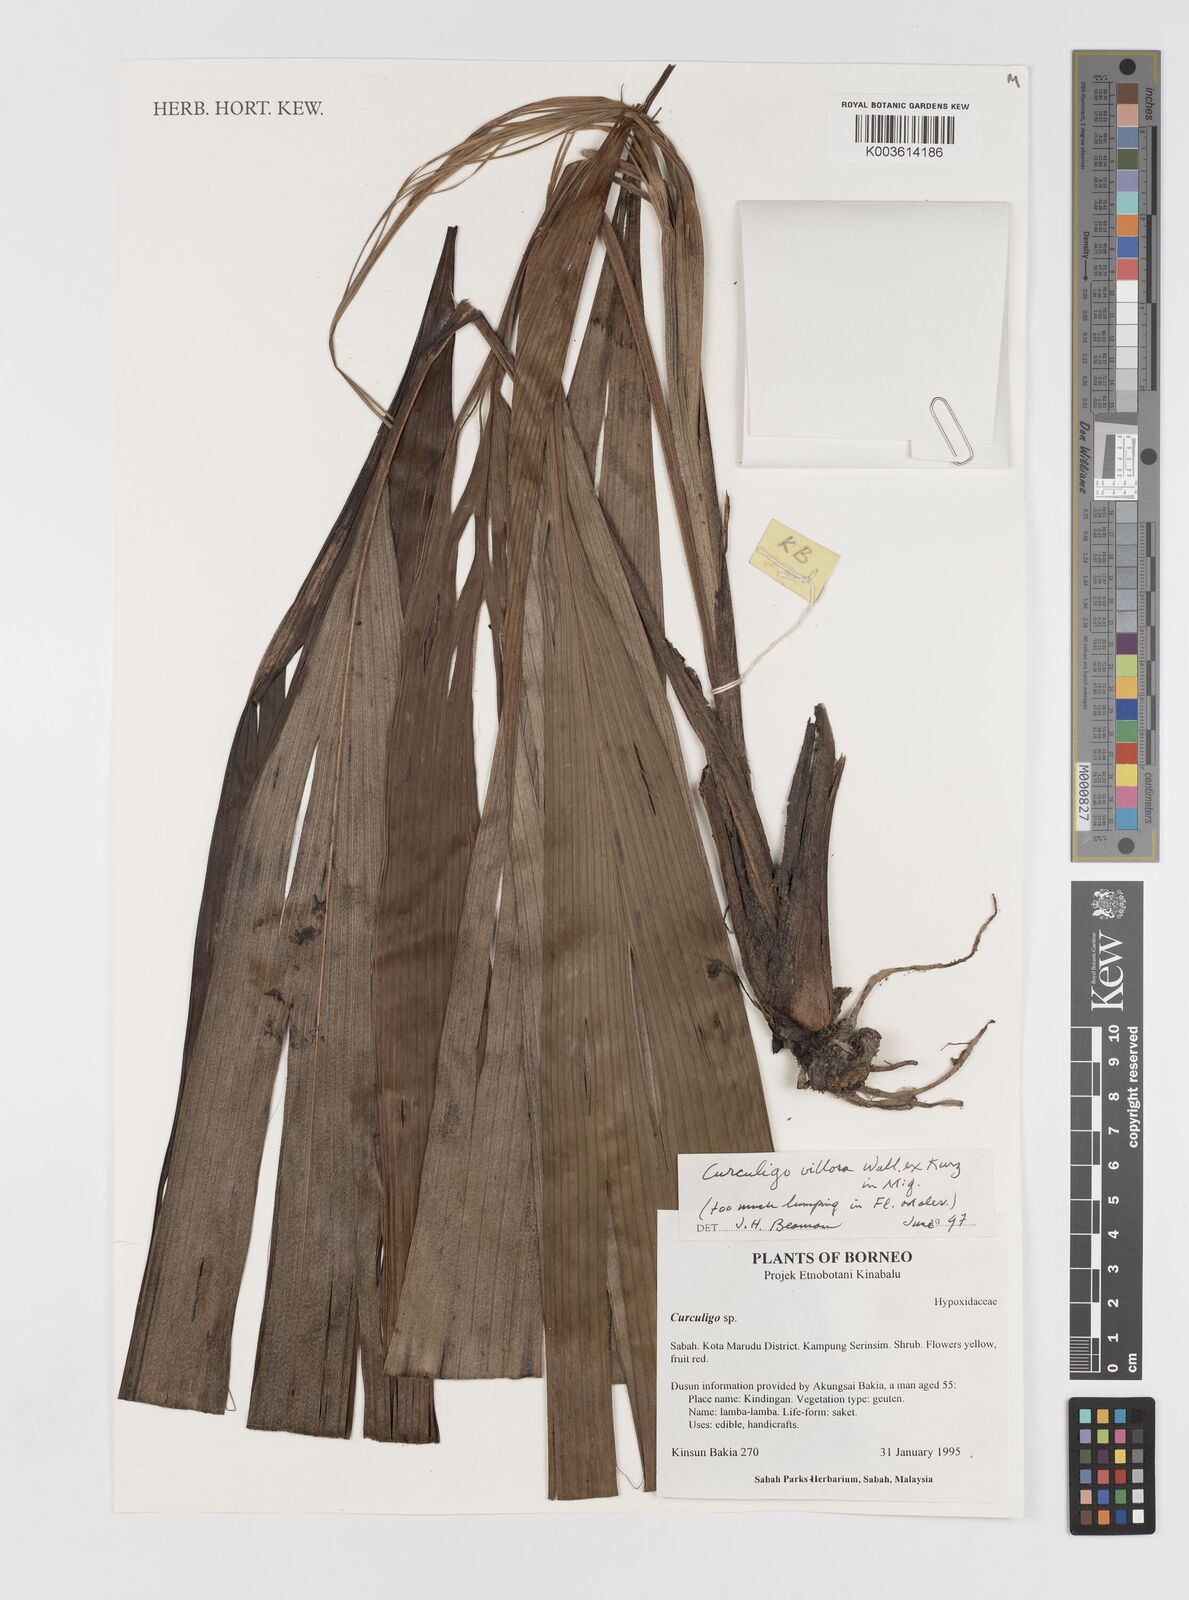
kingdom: Plantae
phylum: Tracheophyta
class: Liliopsida
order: Asparagales
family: Hypoxidaceae
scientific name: Hypoxidaceae
